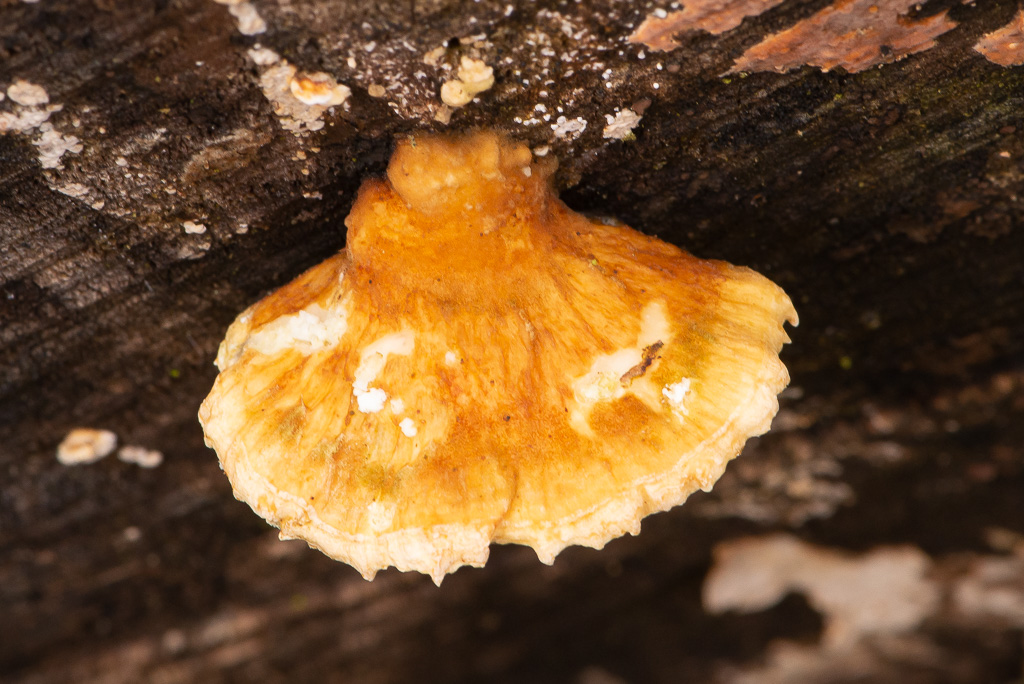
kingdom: Fungi
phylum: Basidiomycota
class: Agaricomycetes
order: Polyporales
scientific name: Polyporales
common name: poresvampordenen
